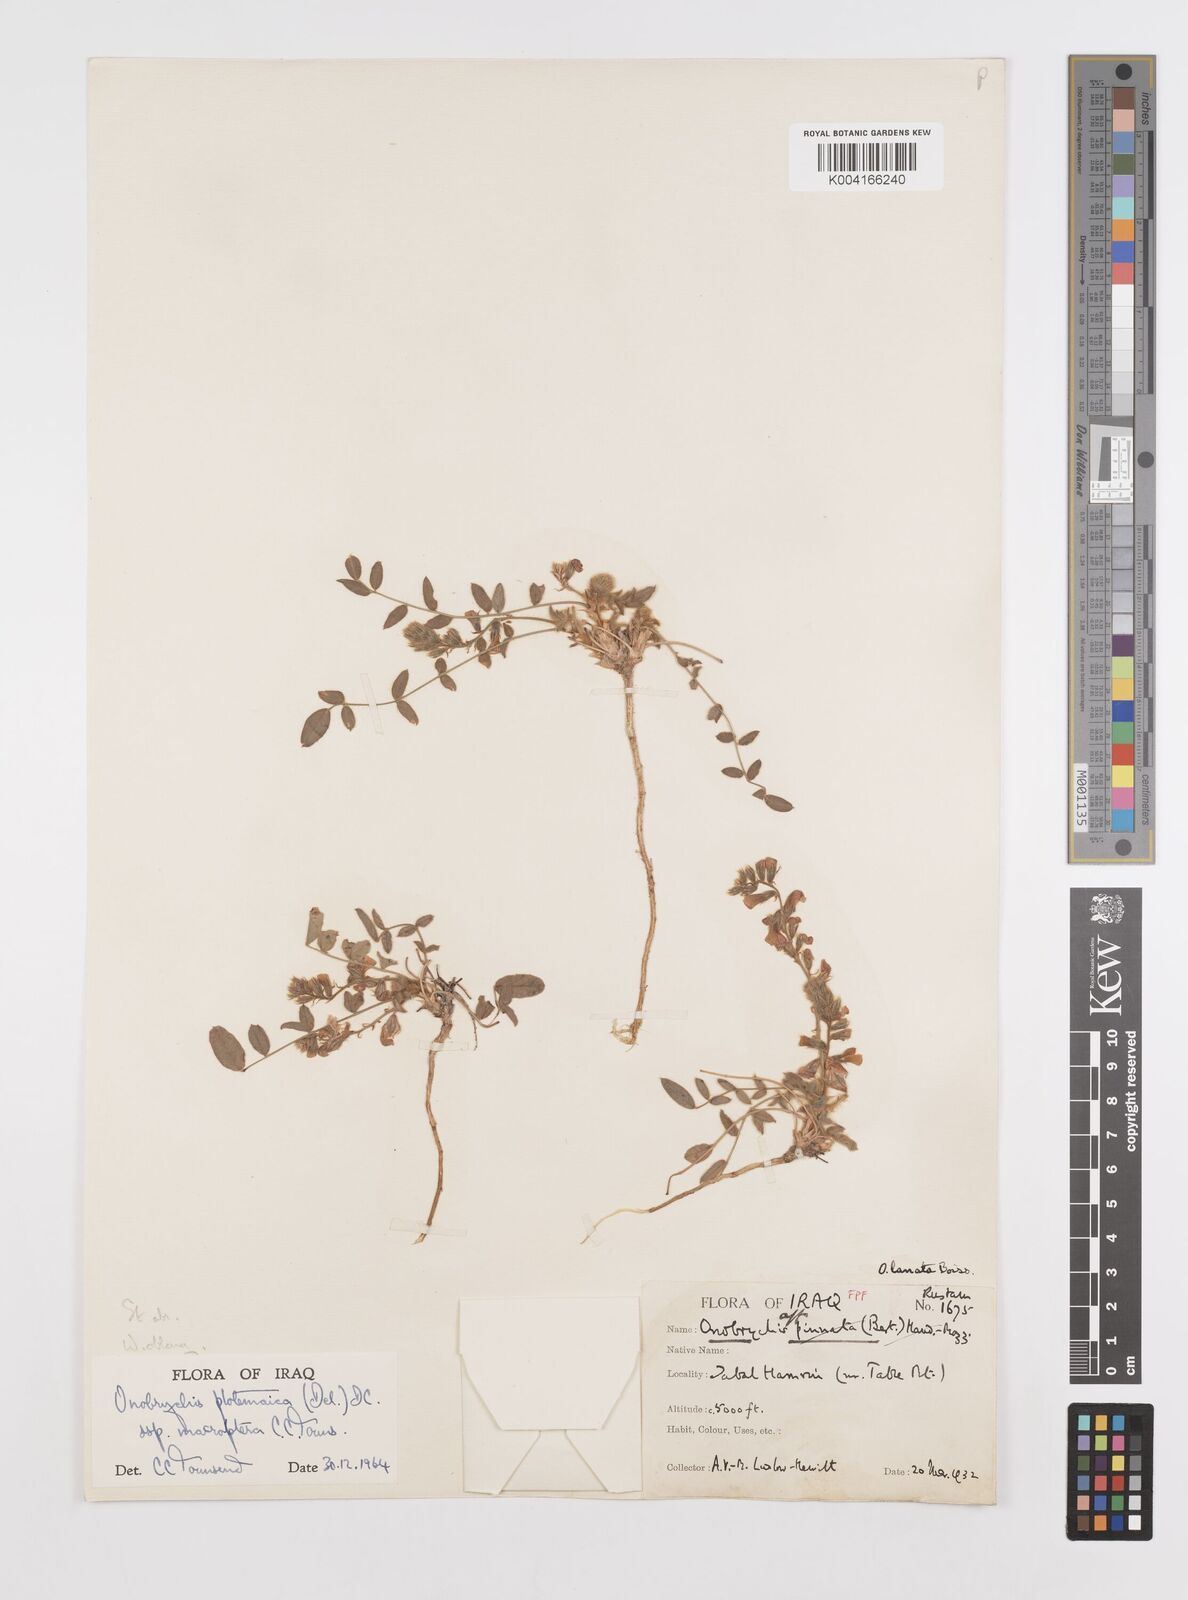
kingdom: Plantae
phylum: Tracheophyta
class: Magnoliopsida
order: Fabales
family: Fabaceae
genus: Onobrychis
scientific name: Onobrychis ptolemaica
